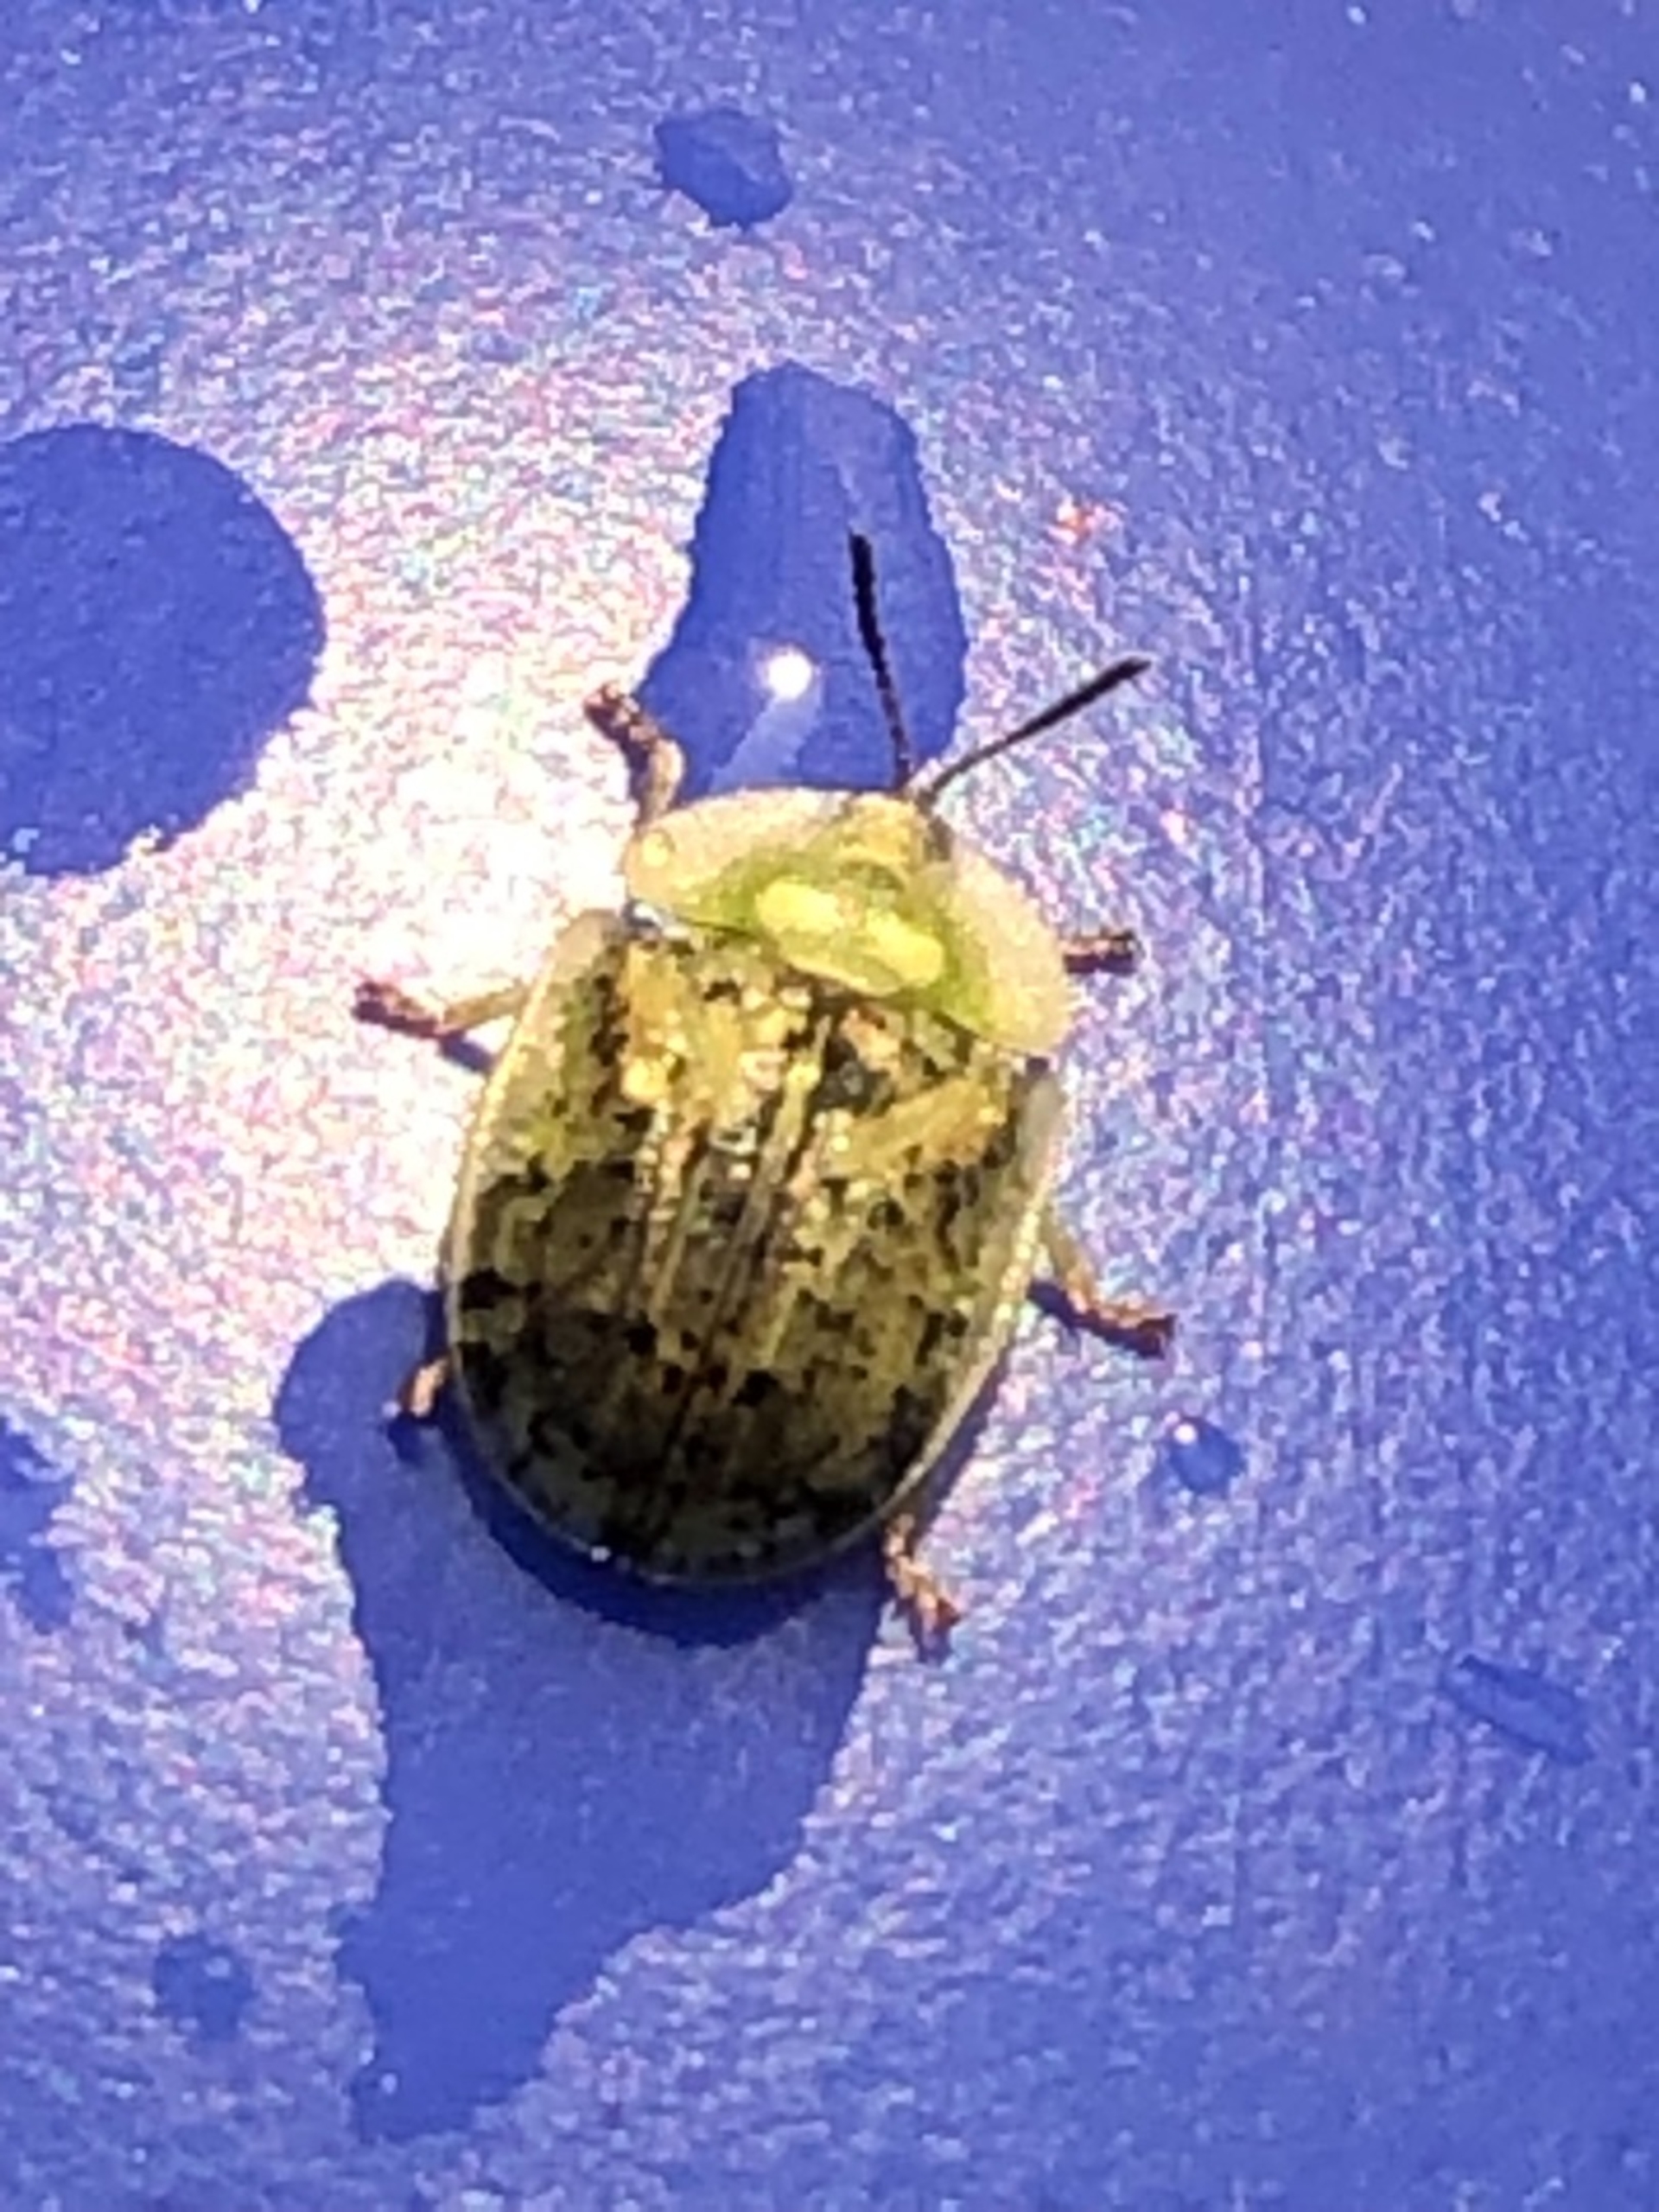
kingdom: Animalia
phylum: Arthropoda
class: Insecta
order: Coleoptera
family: Chrysomelidae
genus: Cassida
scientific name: Cassida nebulosa
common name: Plettet skjoldbille
